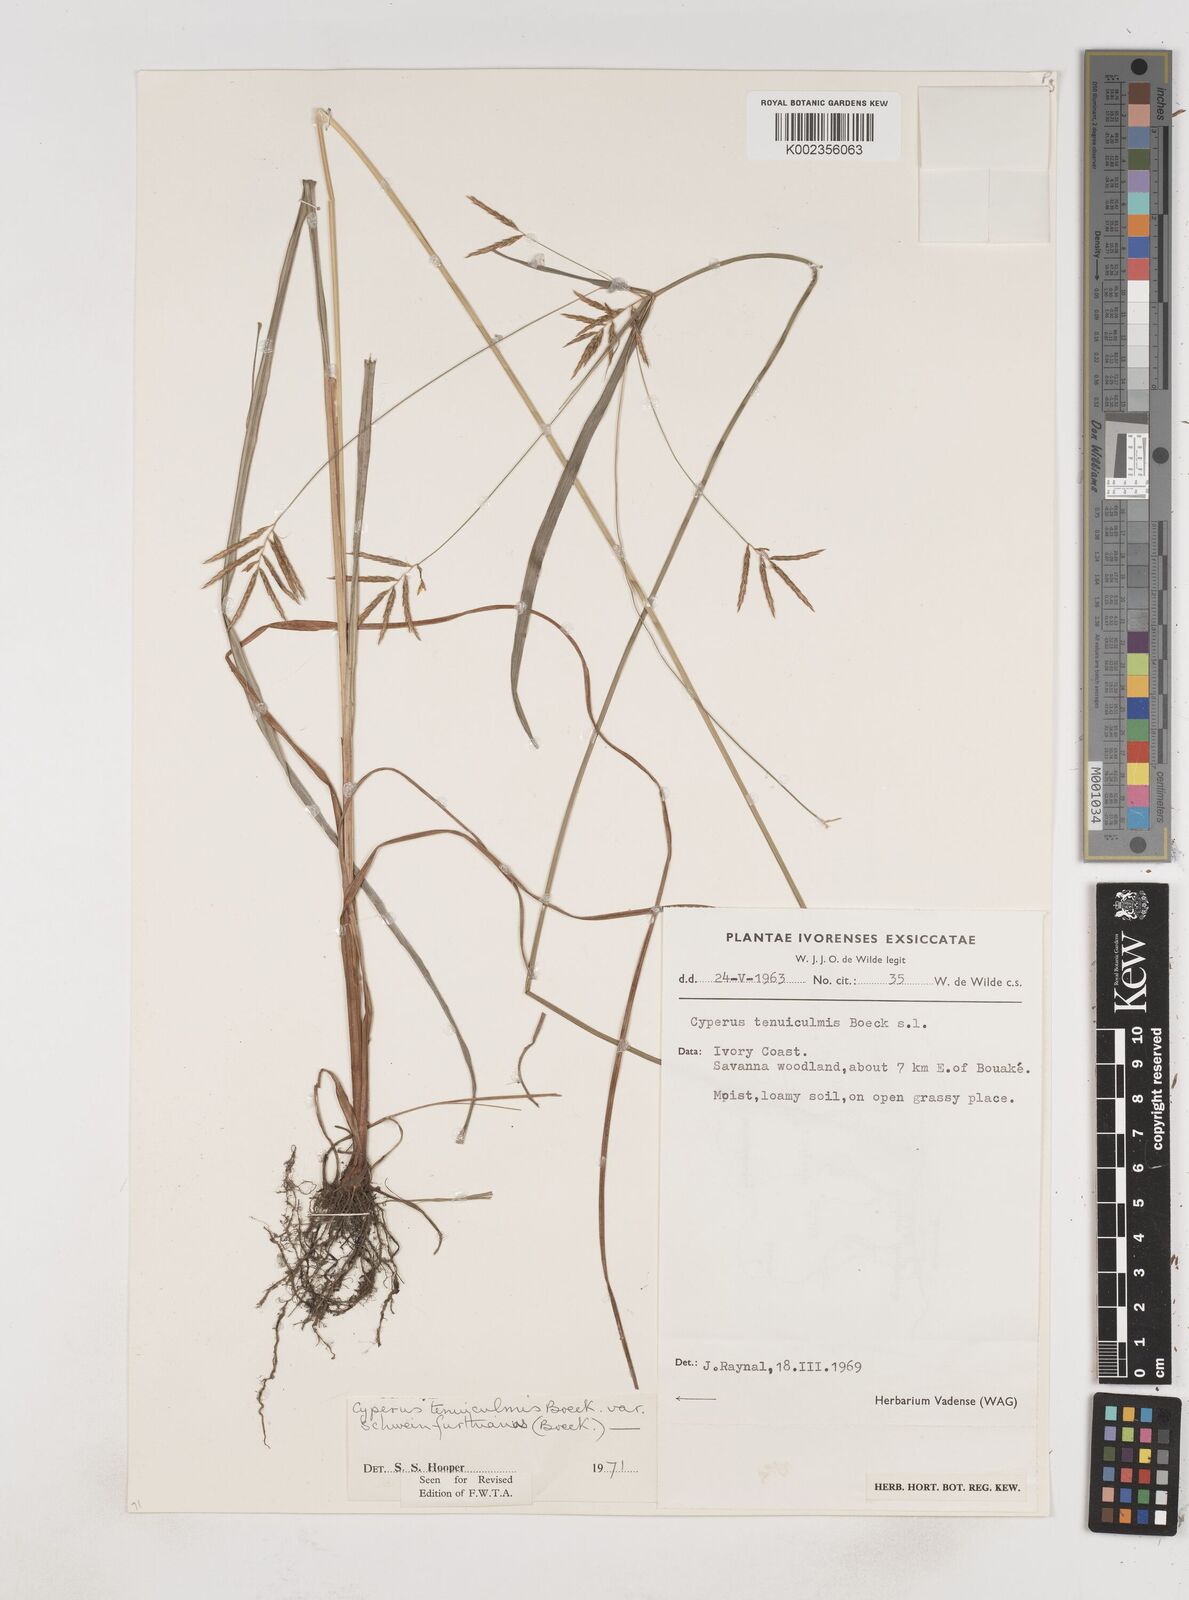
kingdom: Plantae
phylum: Tracheophyta
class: Liliopsida
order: Poales
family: Cyperaceae
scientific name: Cyperaceae
